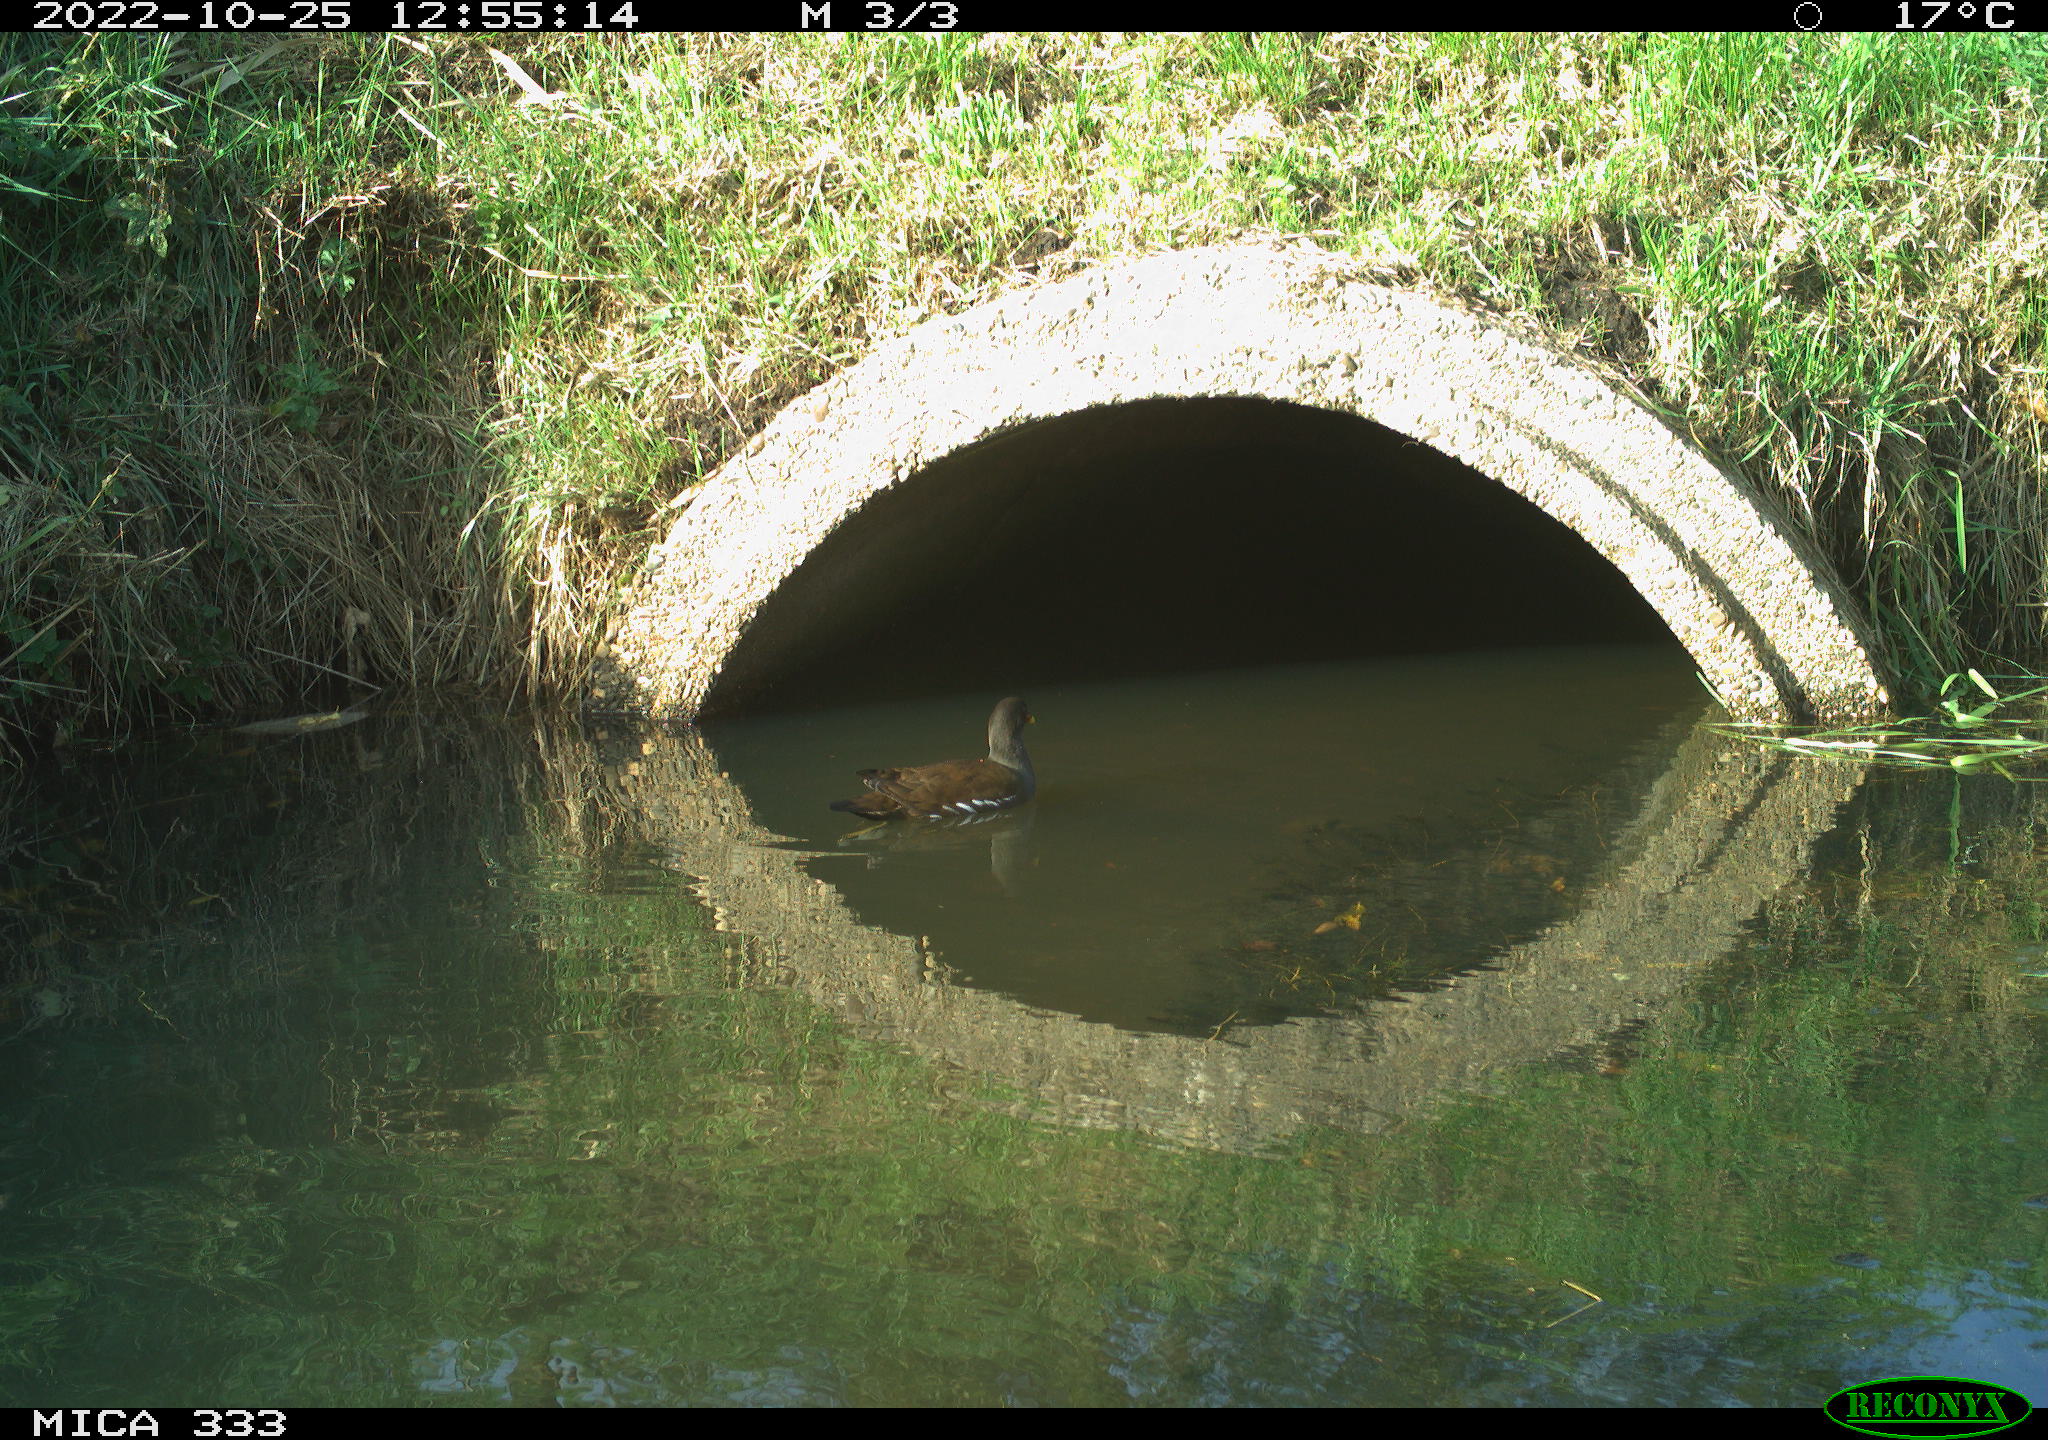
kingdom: Animalia
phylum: Chordata
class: Aves
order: Gruiformes
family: Rallidae
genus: Gallinula
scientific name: Gallinula chloropus
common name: Common moorhen
